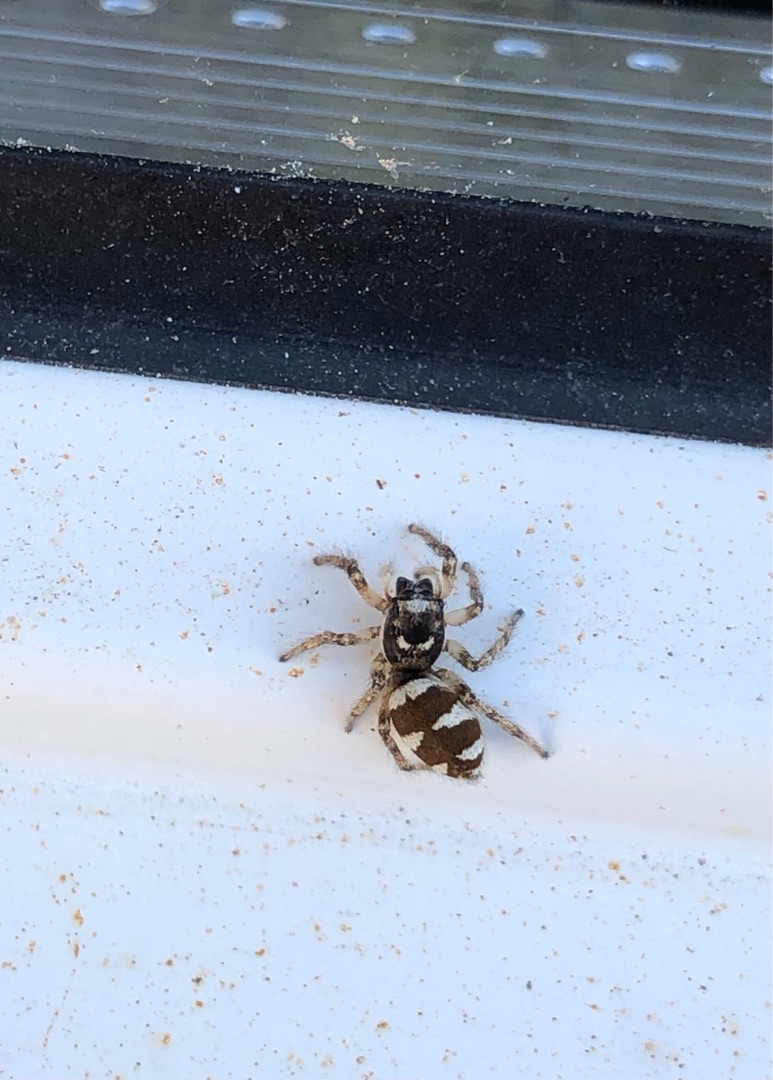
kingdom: Animalia
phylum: Arthropoda
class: Arachnida
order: Araneae
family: Salticidae
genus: Salticus
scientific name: Salticus scenicus
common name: Almindelig zebraedderkop
